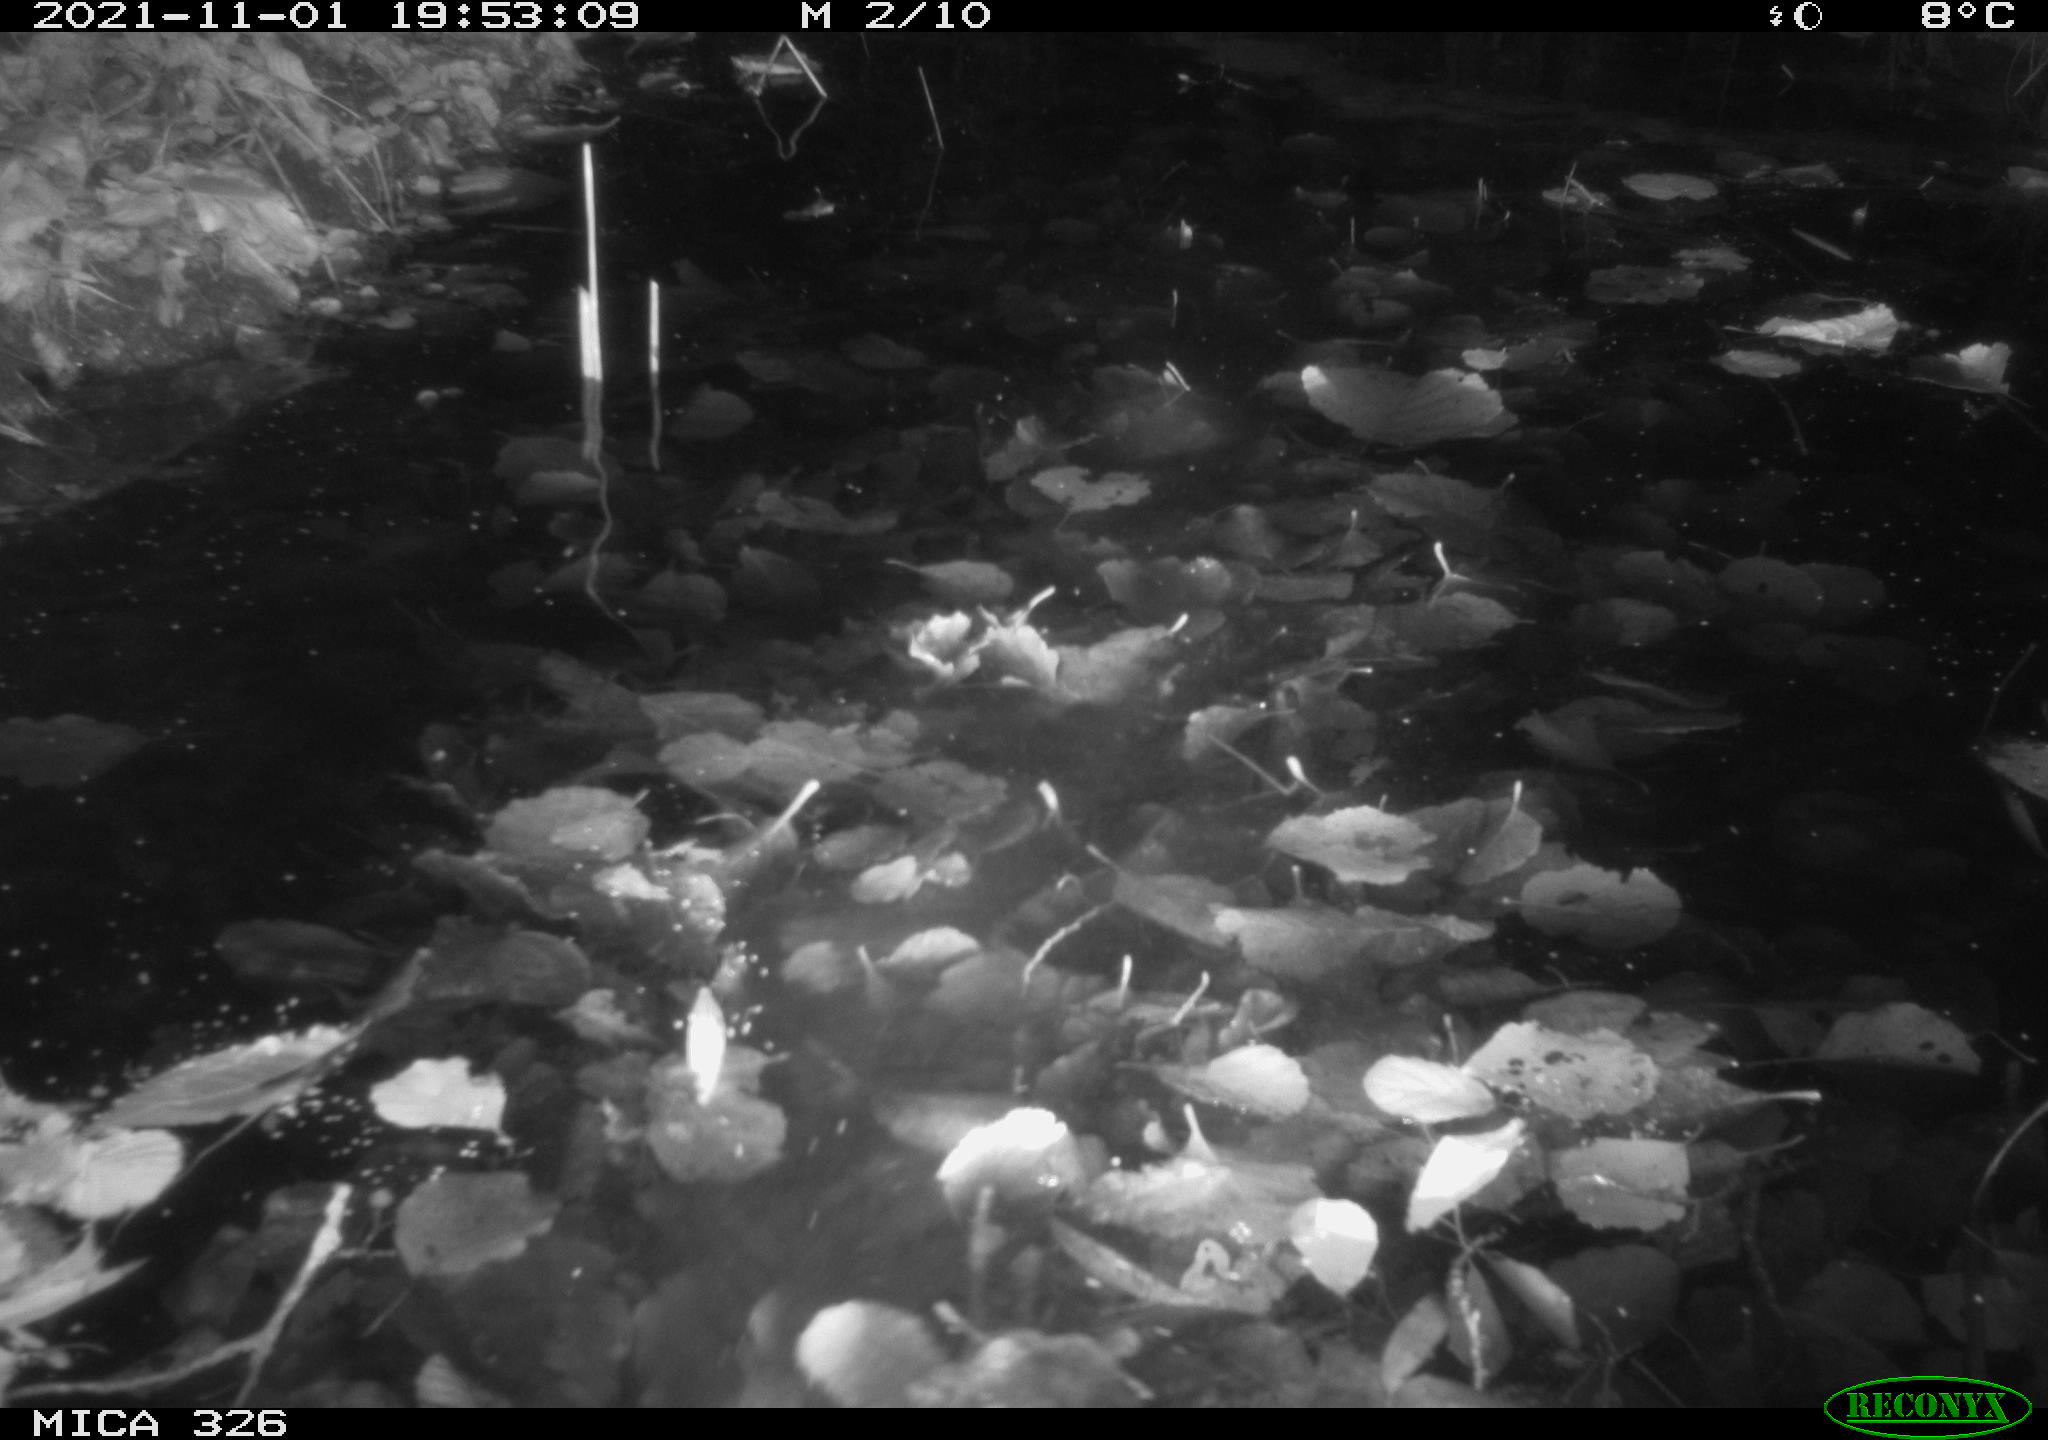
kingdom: Animalia
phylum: Chordata
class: Mammalia
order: Rodentia
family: Myocastoridae
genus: Myocastor
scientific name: Myocastor coypus
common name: Coypu
